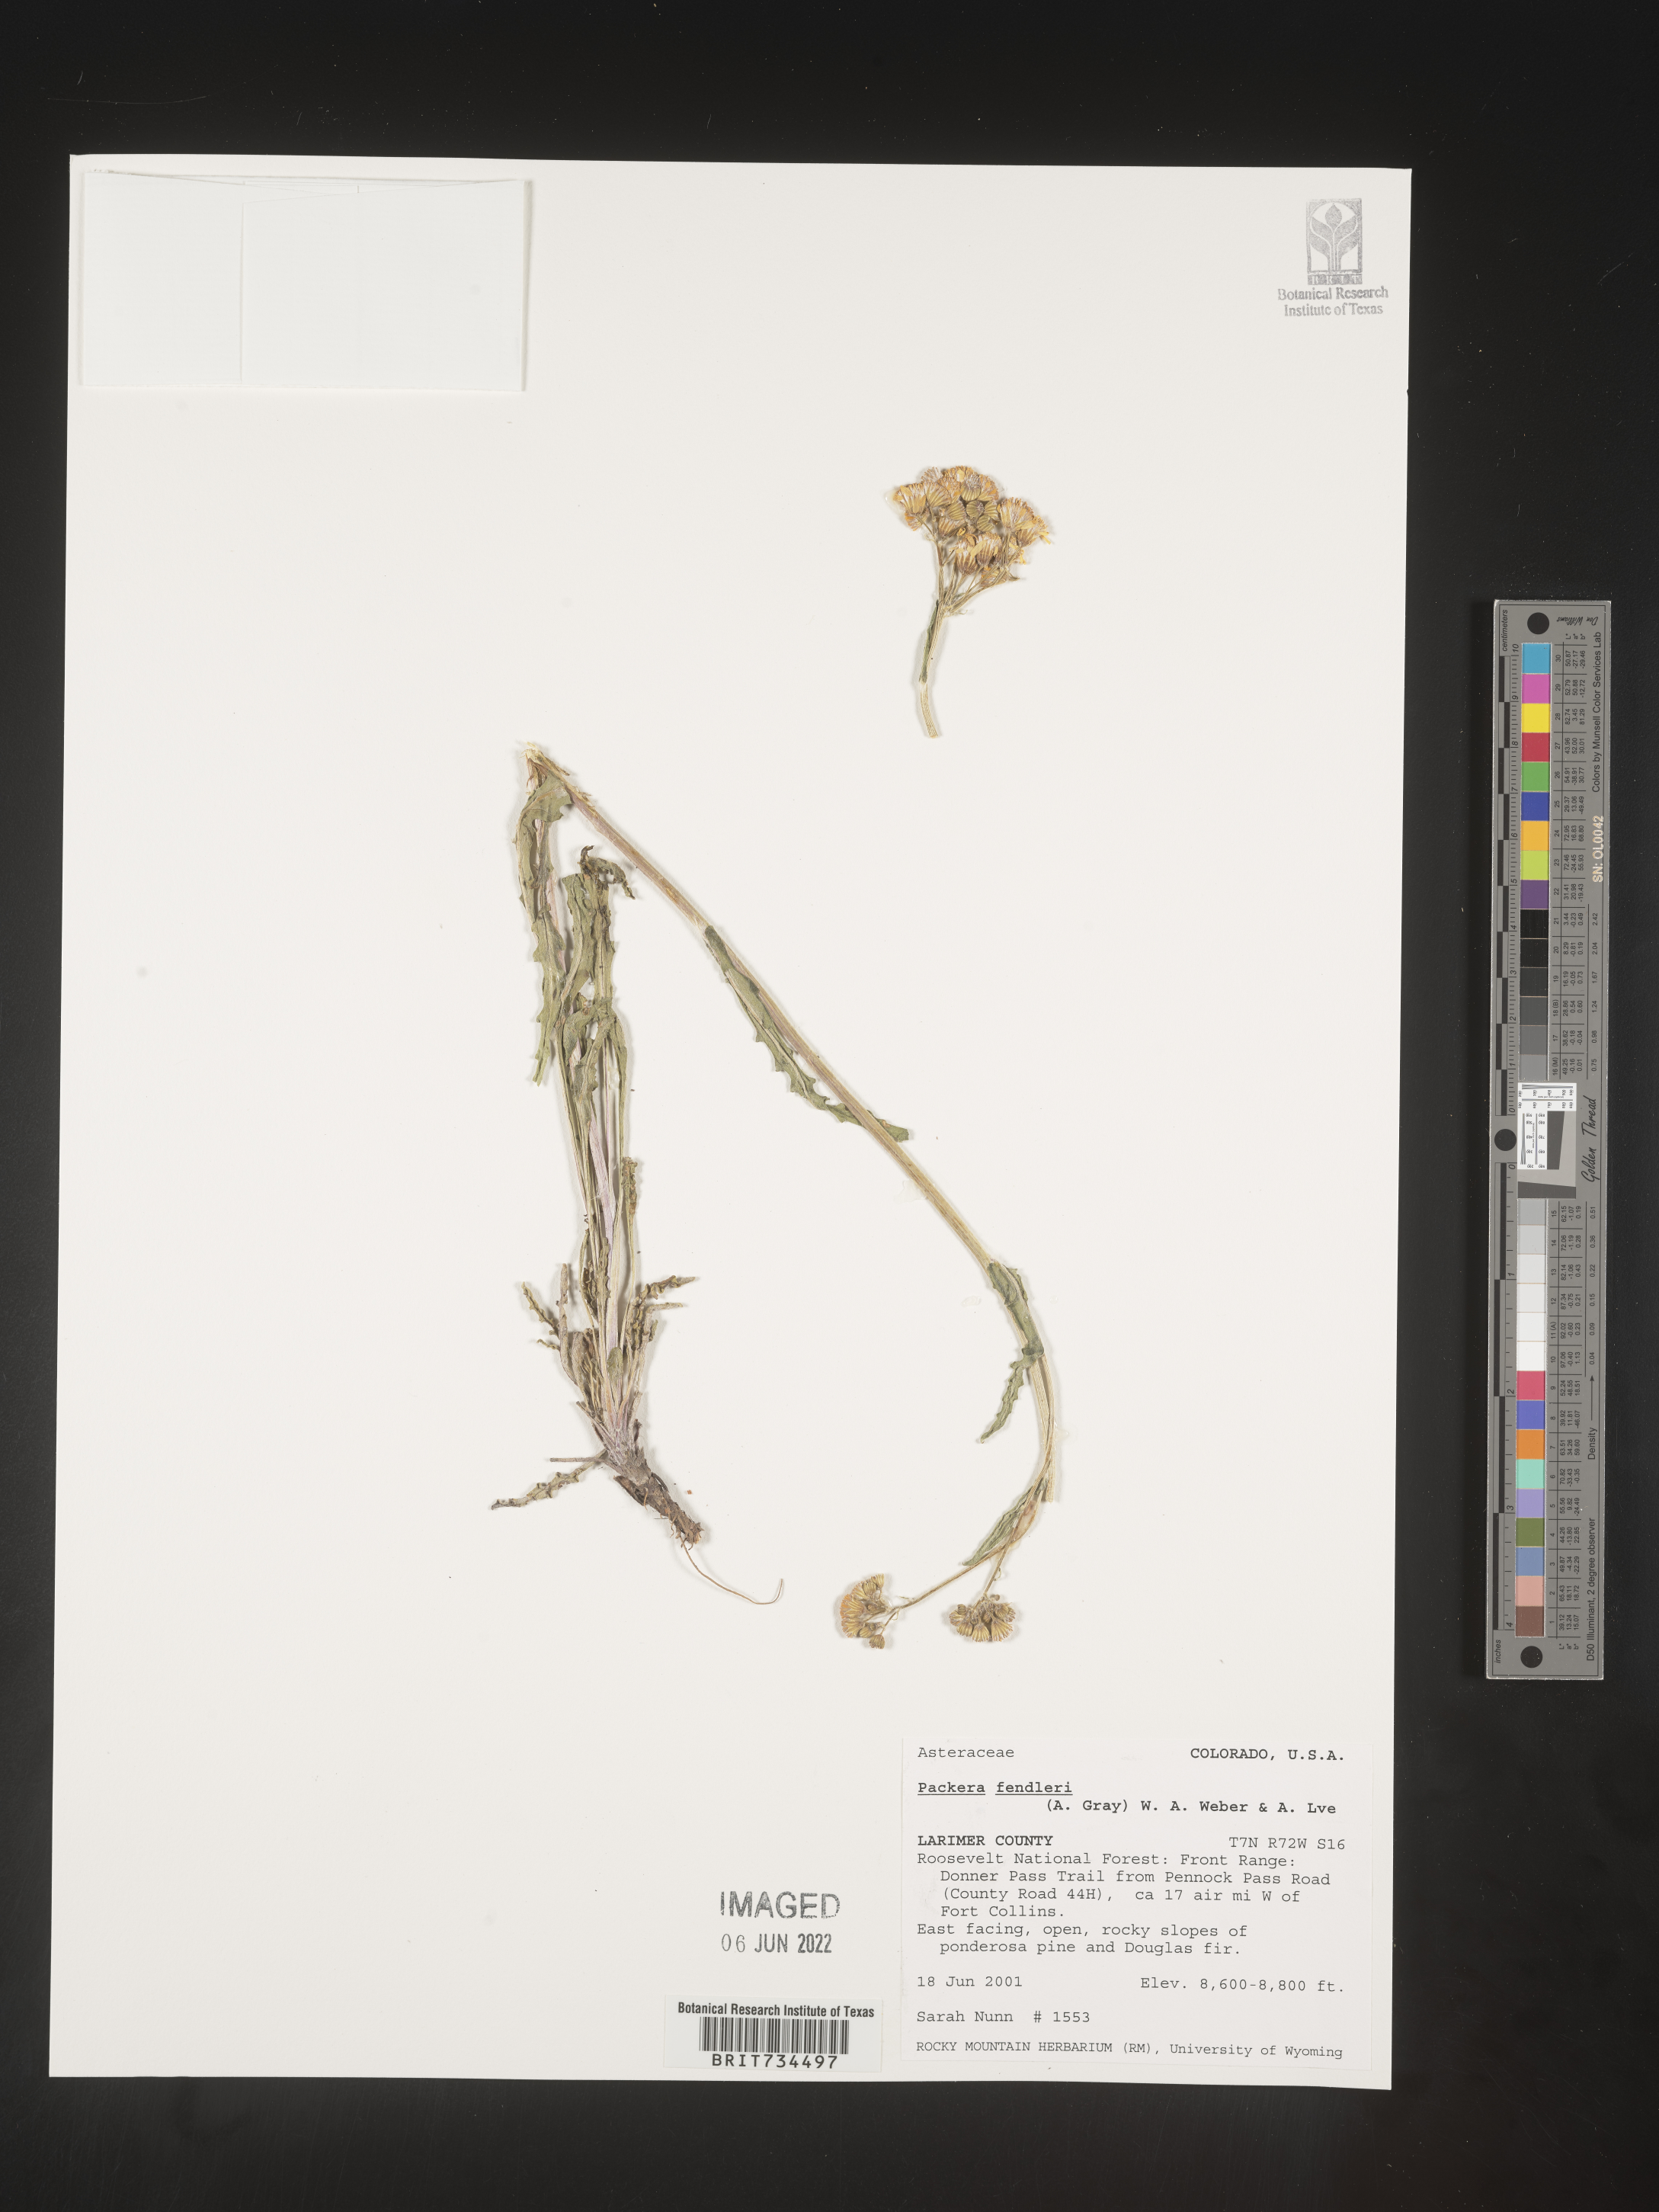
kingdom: Plantae
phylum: Tracheophyta
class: Magnoliopsida
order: Asterales
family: Asteraceae
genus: Packera
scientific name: Packera fendleri
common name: Notch-leaf butterweed
